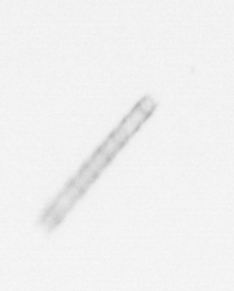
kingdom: Chromista
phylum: Ochrophyta
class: Bacillariophyceae
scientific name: Bacillariophyceae
